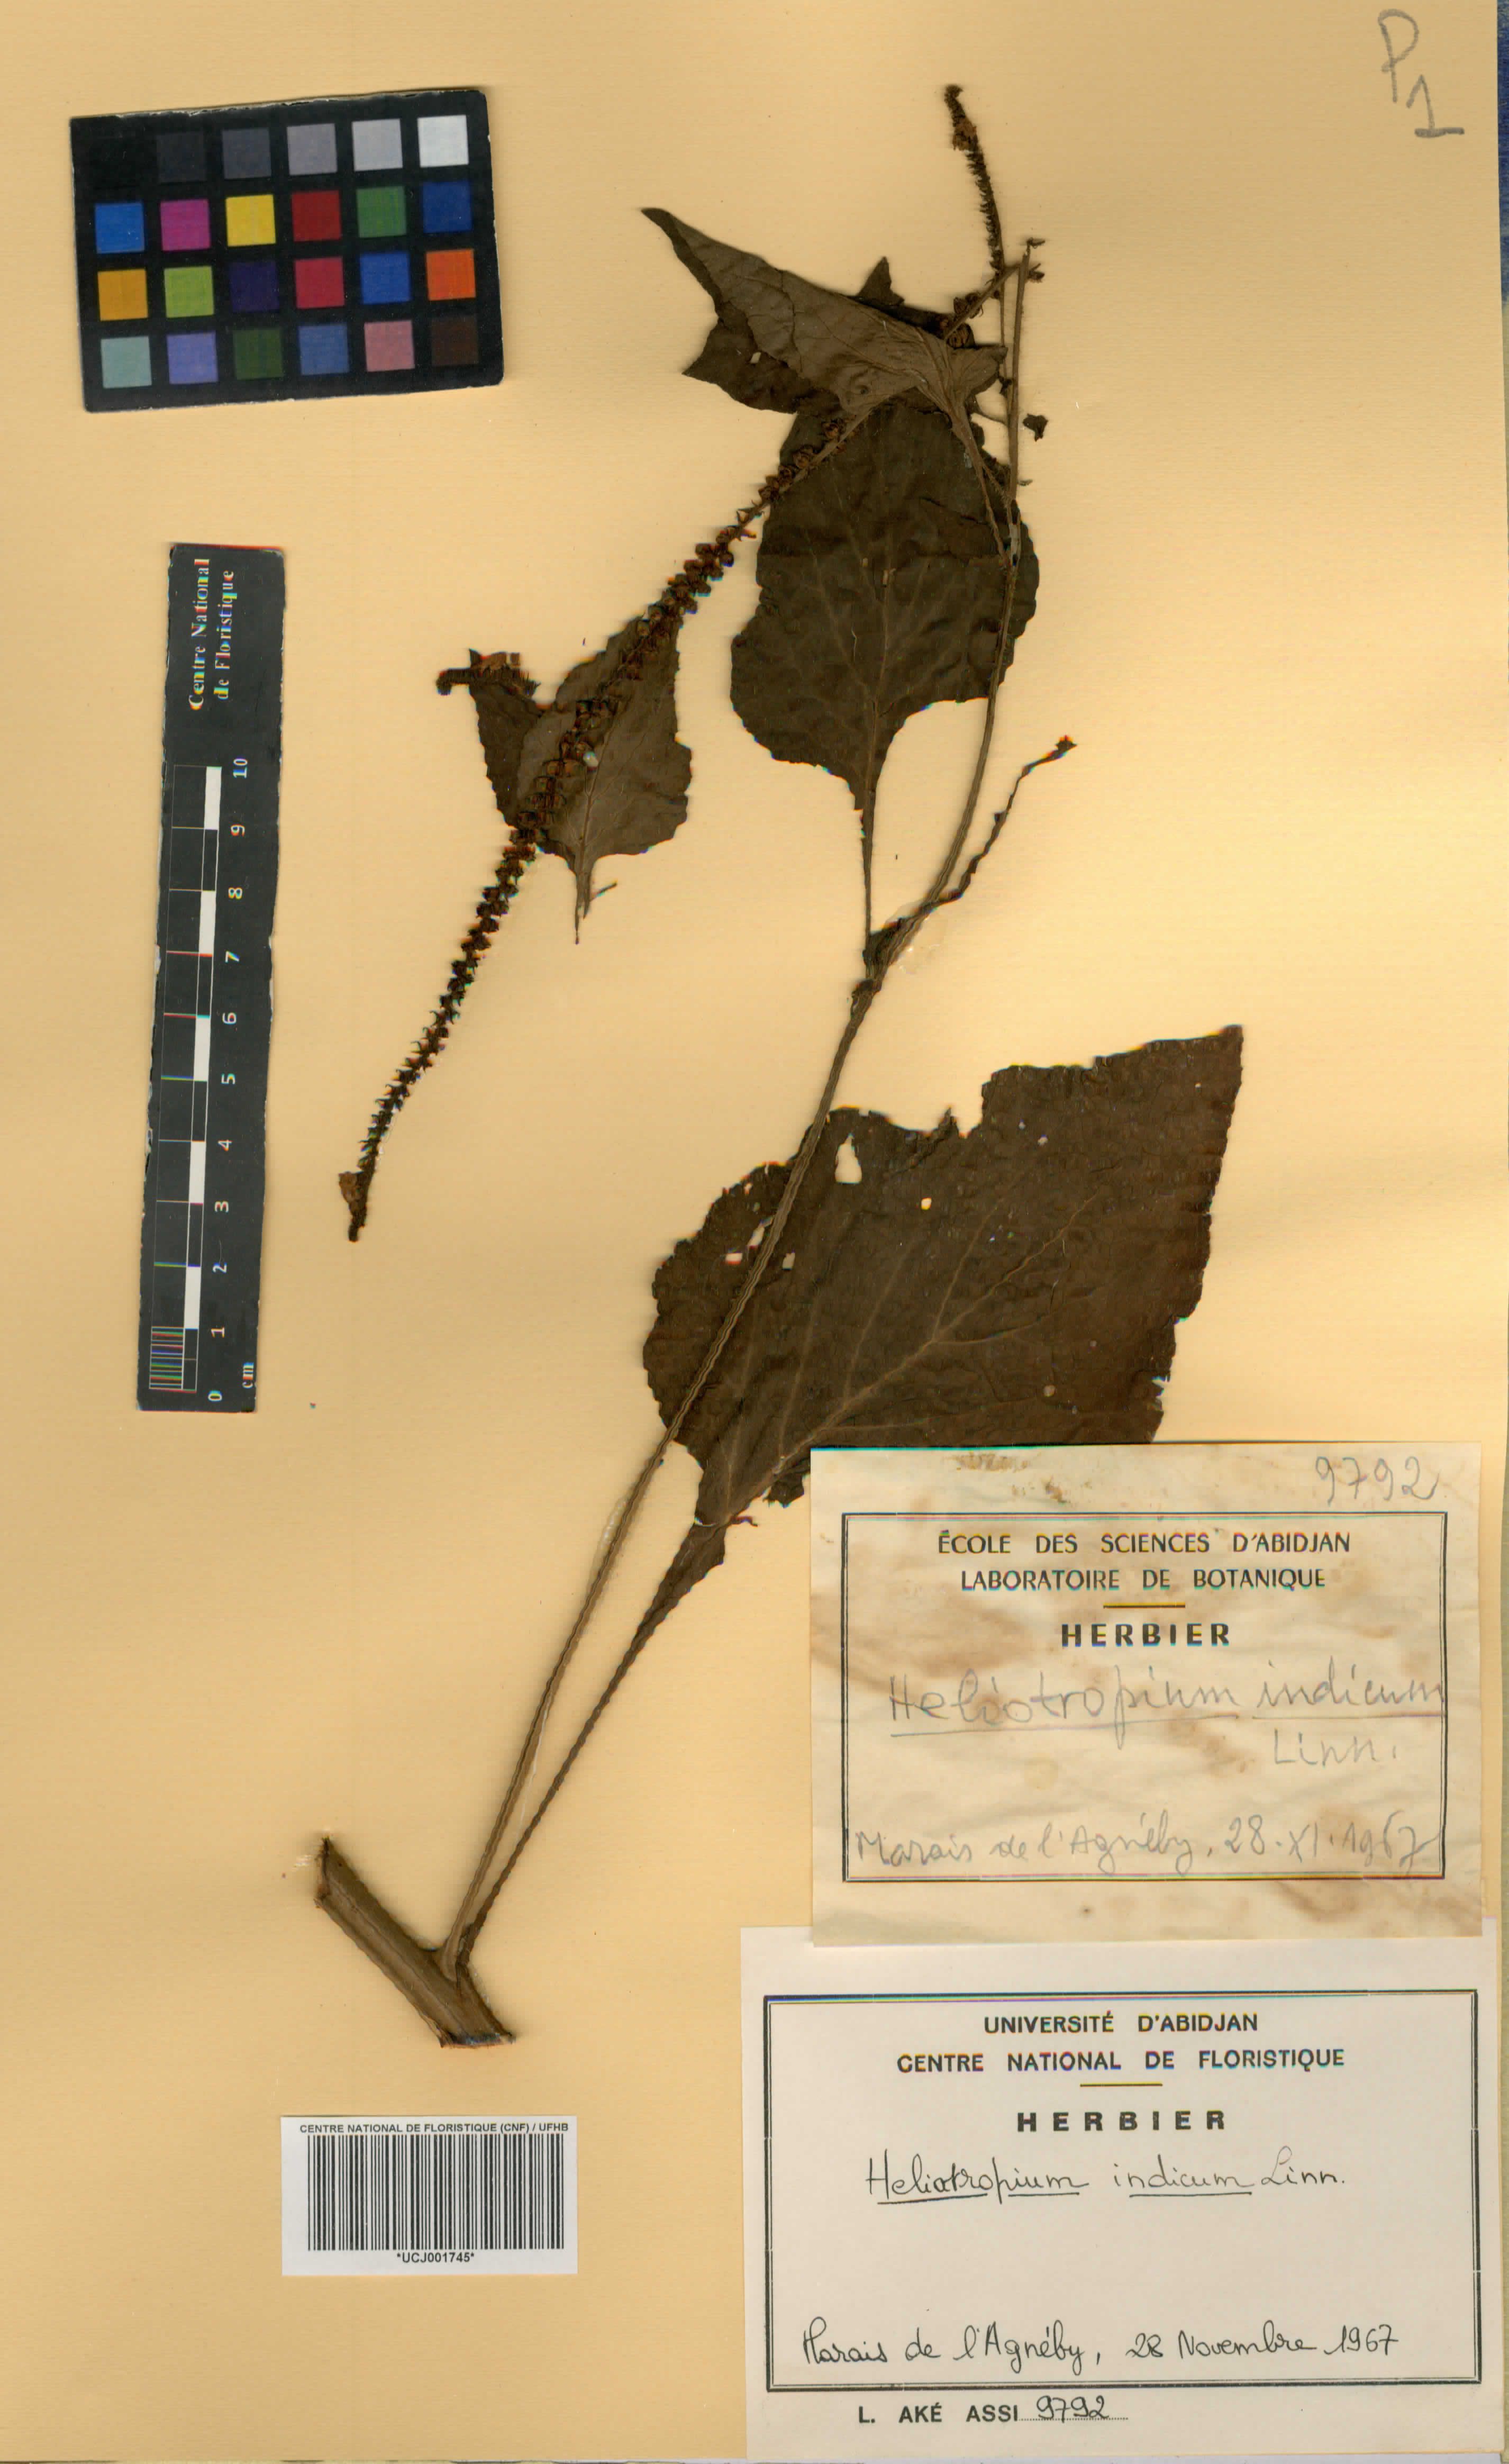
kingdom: Plantae
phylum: Tracheophyta
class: Magnoliopsida
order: Boraginales
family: Heliotropiaceae
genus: Heliotropium
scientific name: Heliotropium indicum
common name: Indian heliotrope
